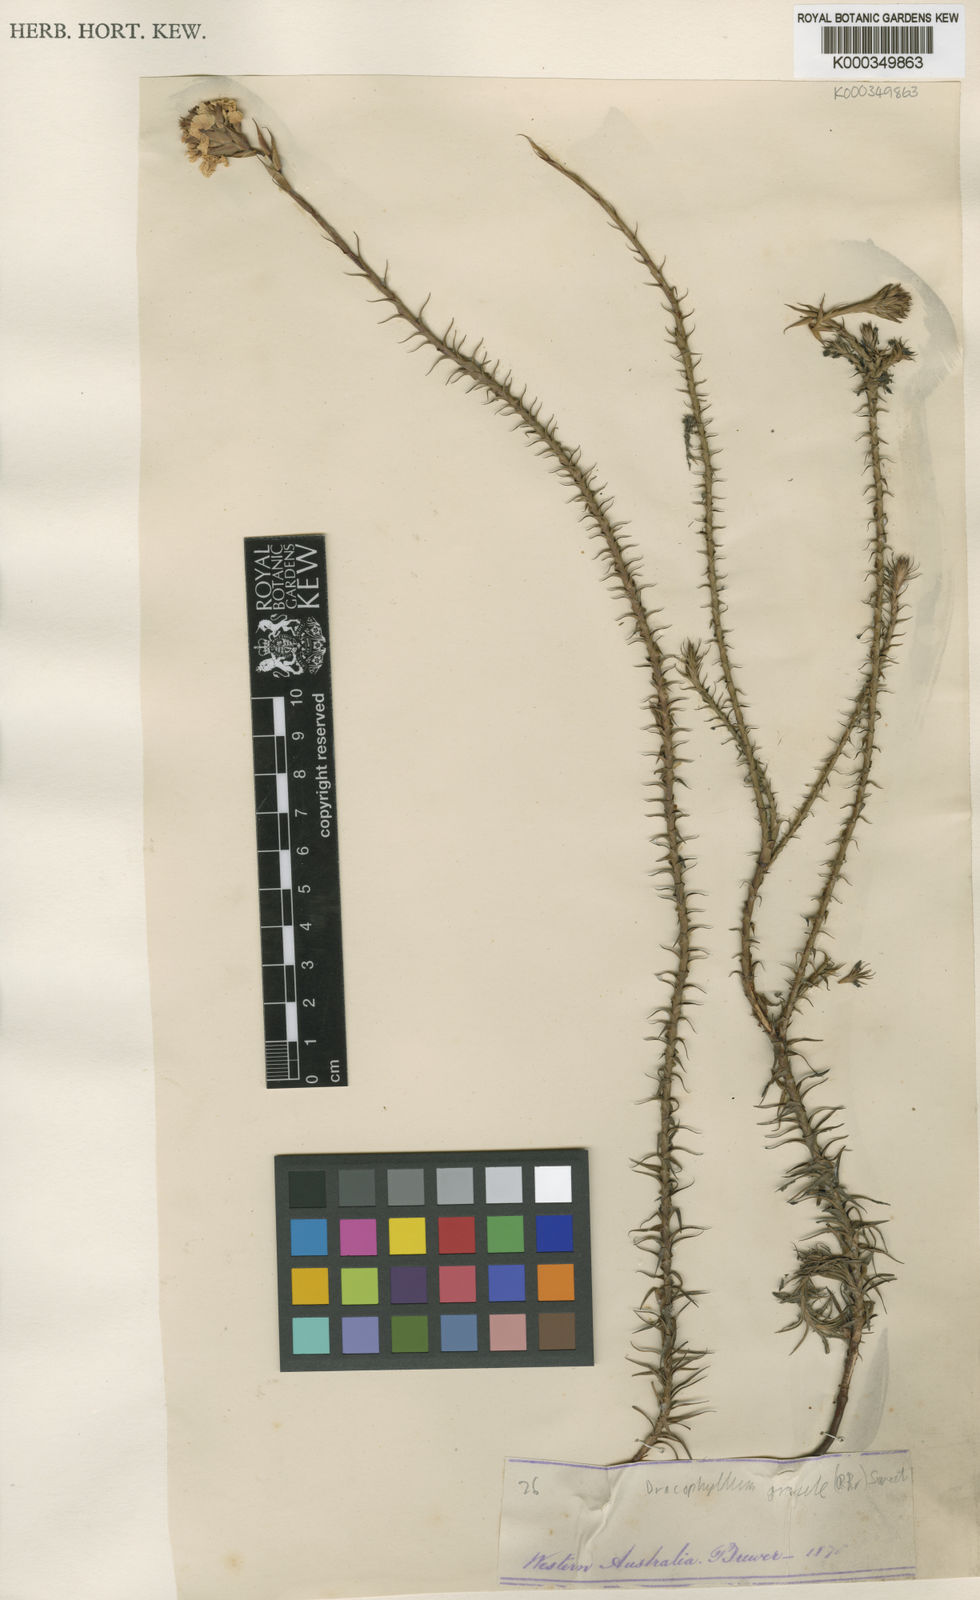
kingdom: Plantae
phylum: Tracheophyta
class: Magnoliopsida
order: Ericales
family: Ericaceae
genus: Dracophyllum
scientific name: Dracophyllum cosmelioides
